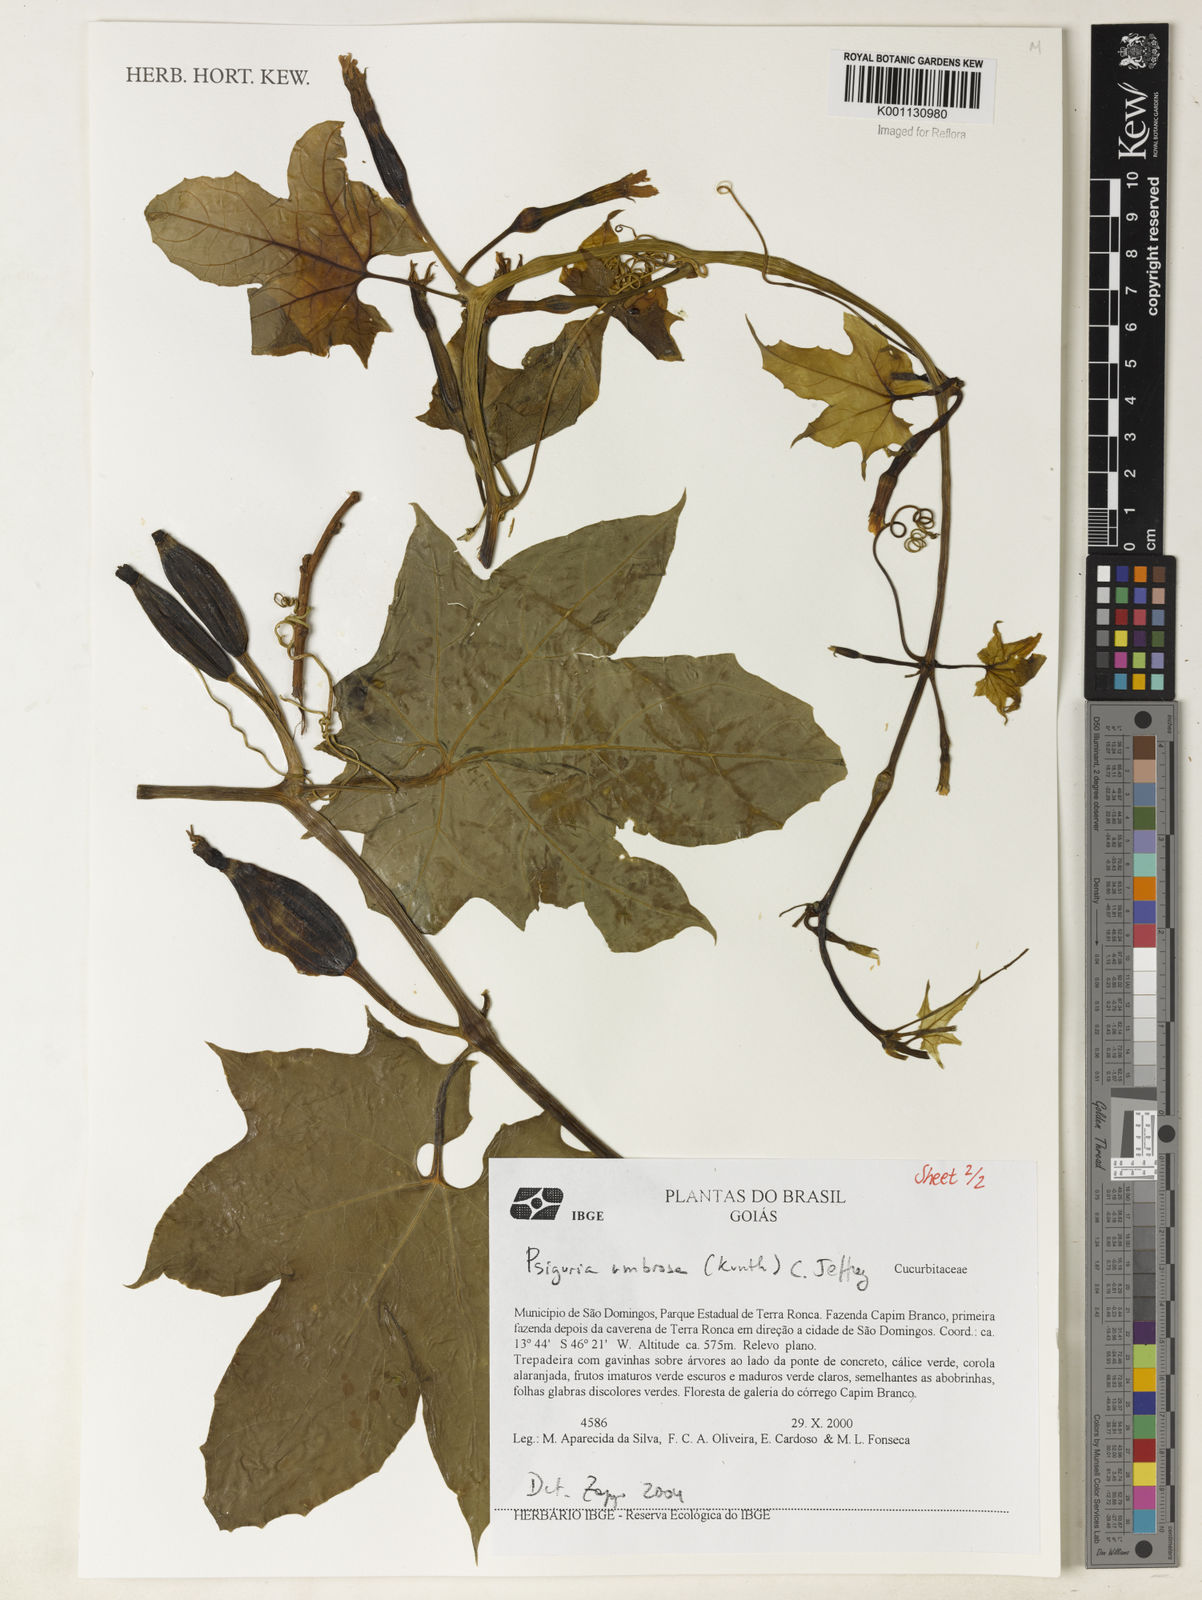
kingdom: Plantae
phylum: Tracheophyta
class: Magnoliopsida
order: Cucurbitales
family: Cucurbitaceae
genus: Psiguria
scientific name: Psiguria umbrosa
